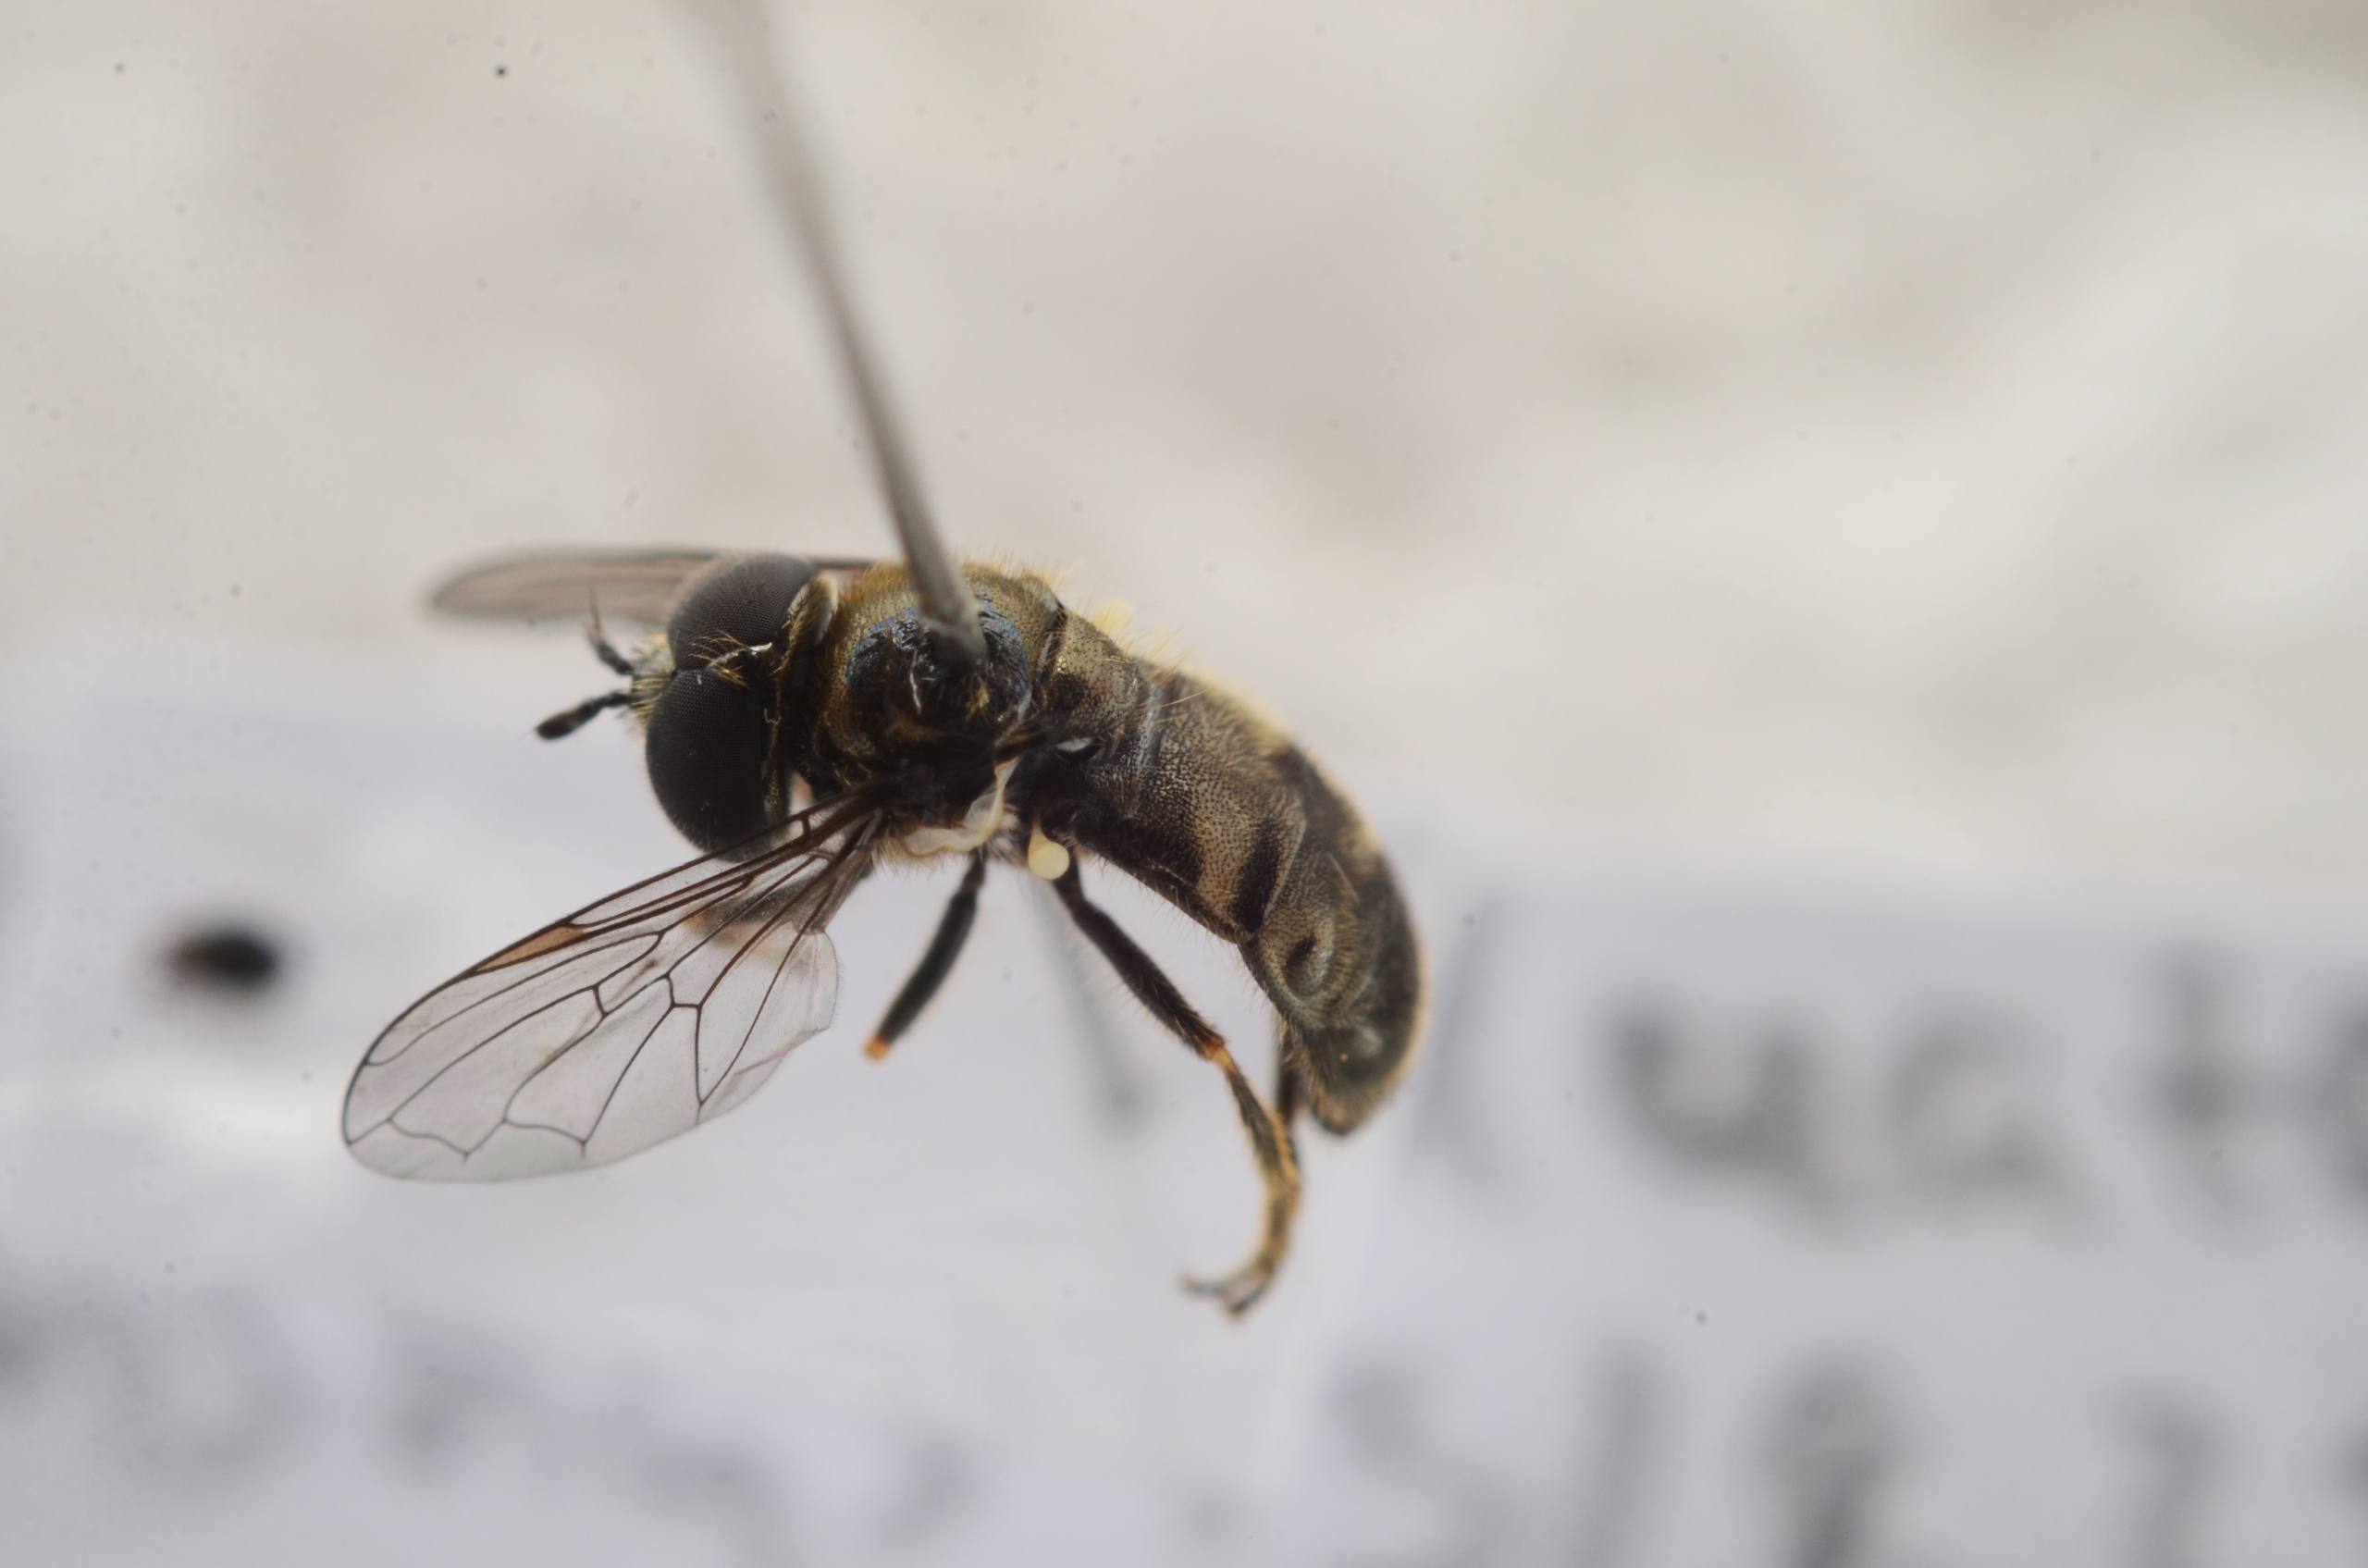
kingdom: Animalia
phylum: Arthropoda
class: Insecta
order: Diptera
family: Syrphidae
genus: Pipizella
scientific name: Pipizella viduata
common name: Almindelig rodsvirreflue
